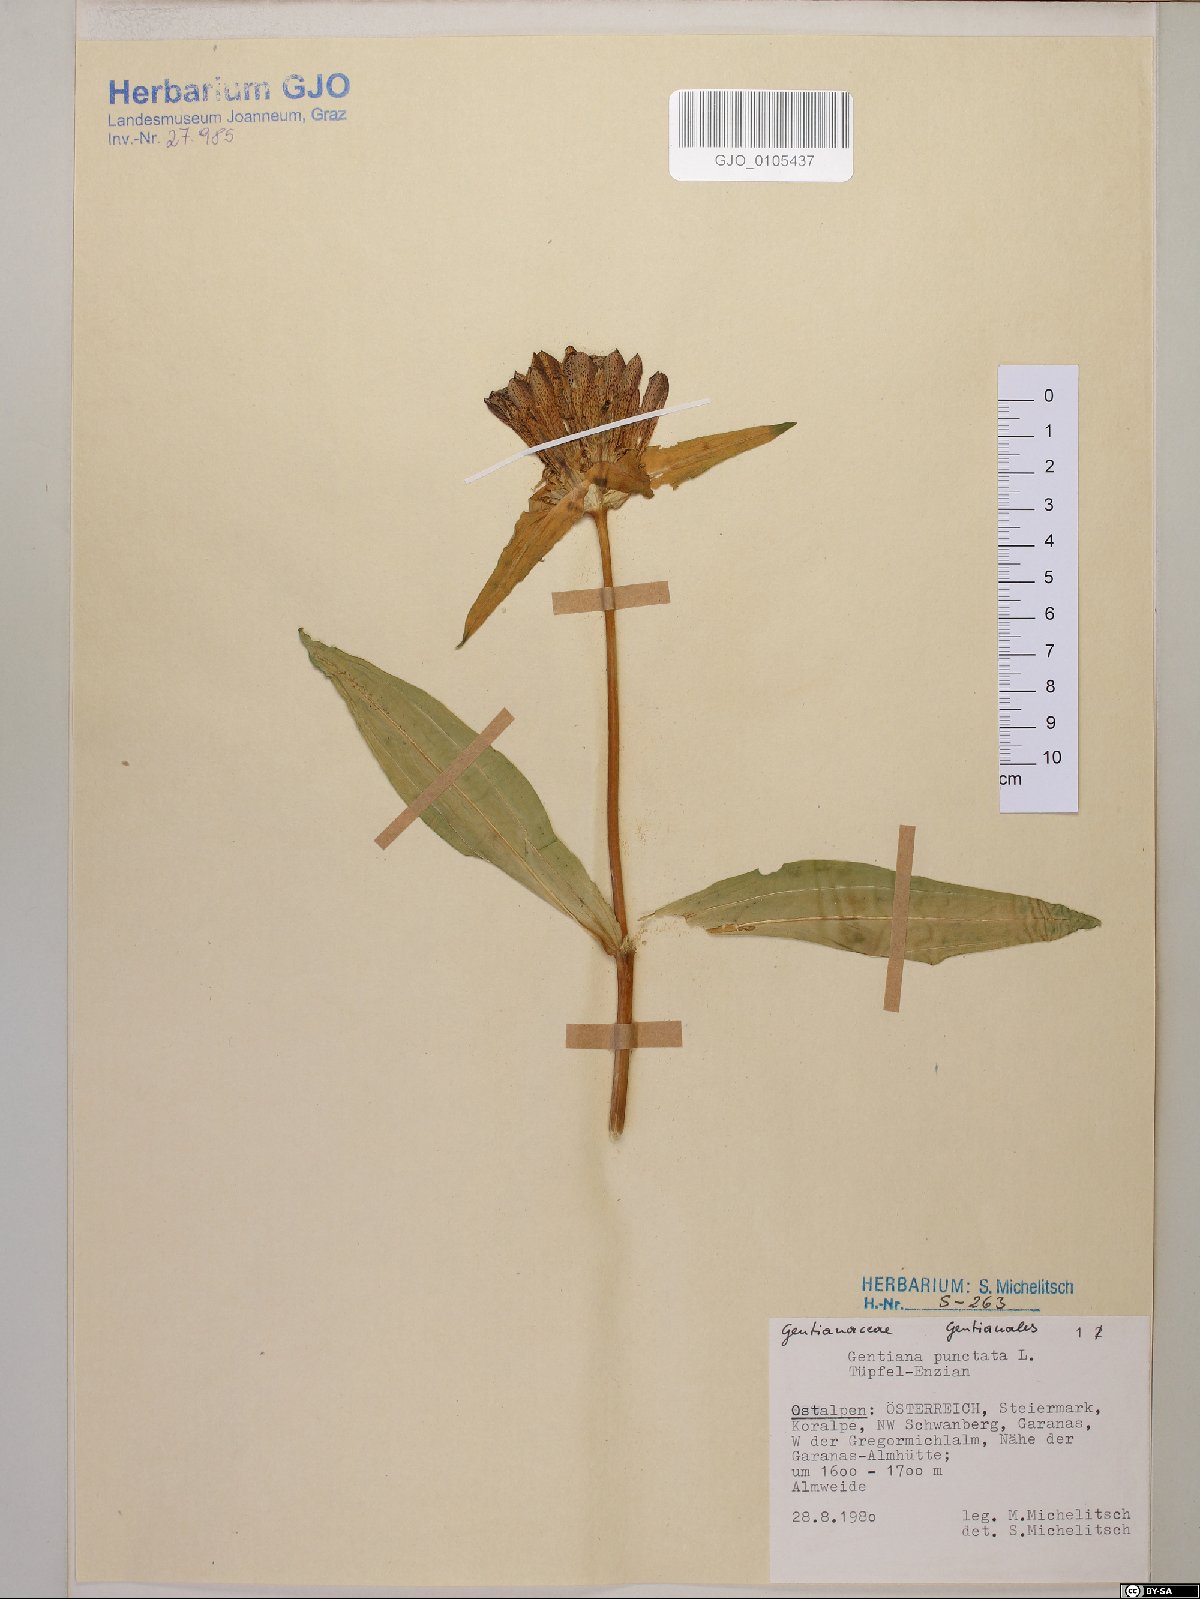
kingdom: Plantae
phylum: Tracheophyta
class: Magnoliopsida
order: Gentianales
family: Gentianaceae
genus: Gentiana
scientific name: Gentiana punctata
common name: Spotted gentian
